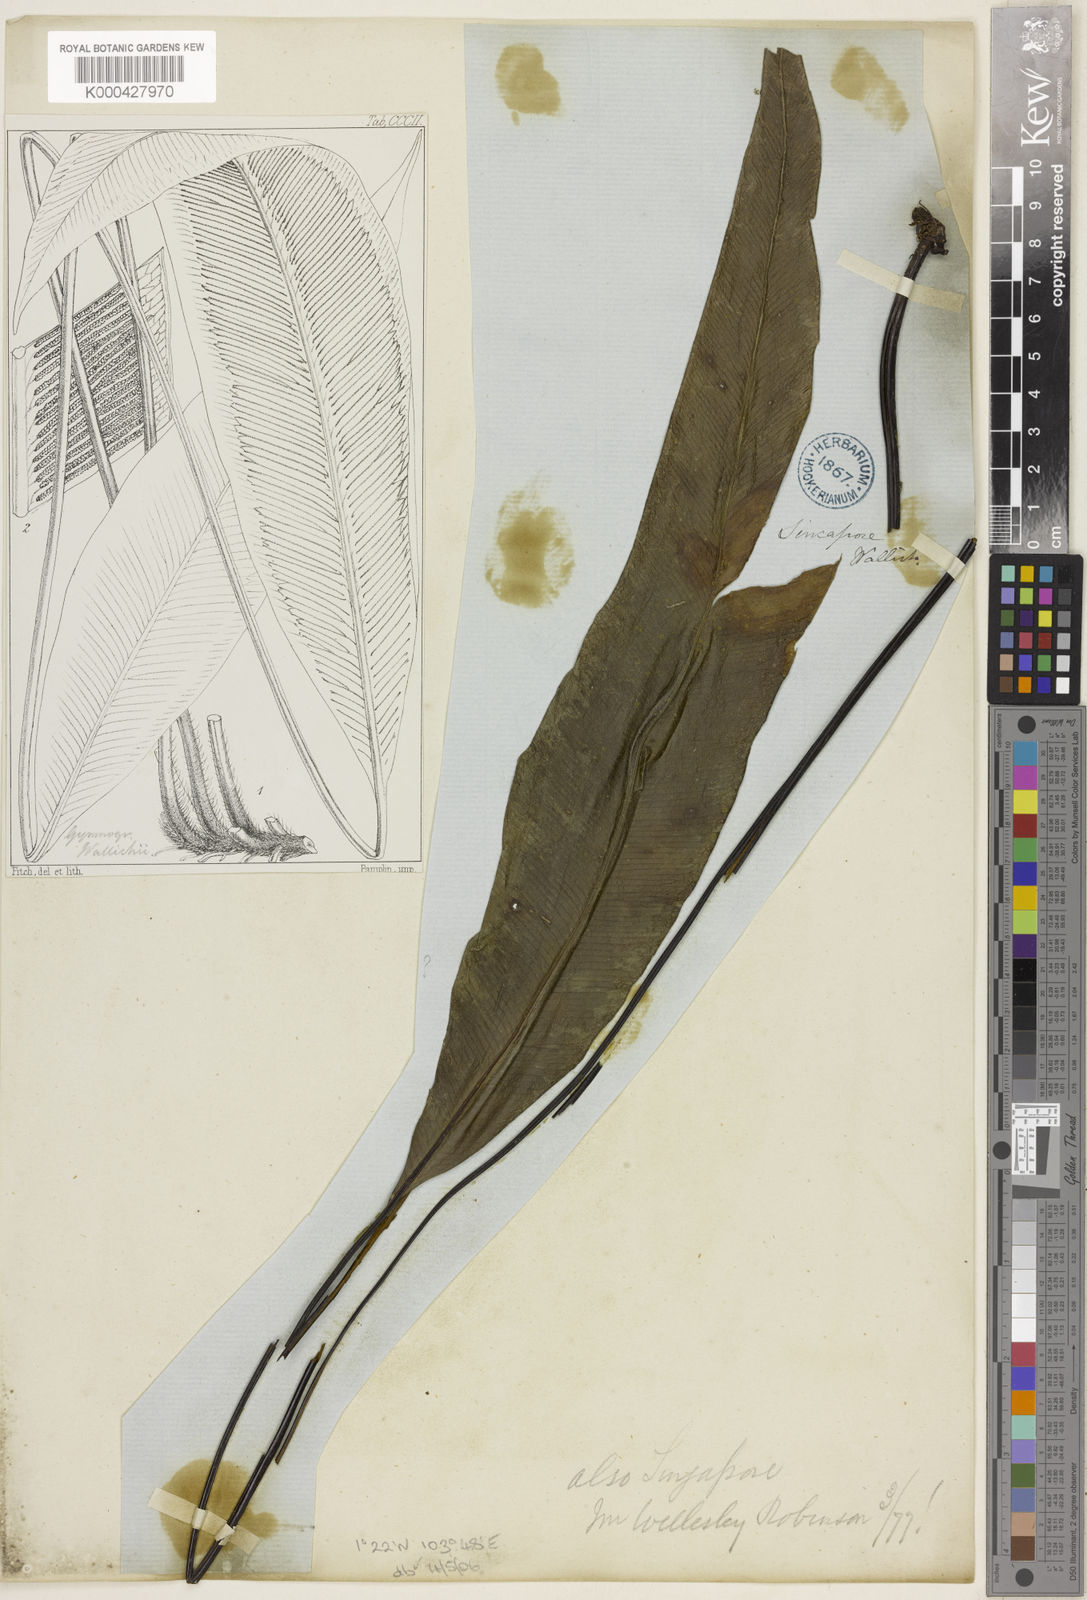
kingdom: Plantae
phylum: Tracheophyta
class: Polypodiopsida
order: Polypodiales
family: Pteridaceae
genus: Syngramma
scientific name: Syngramma wallichii
